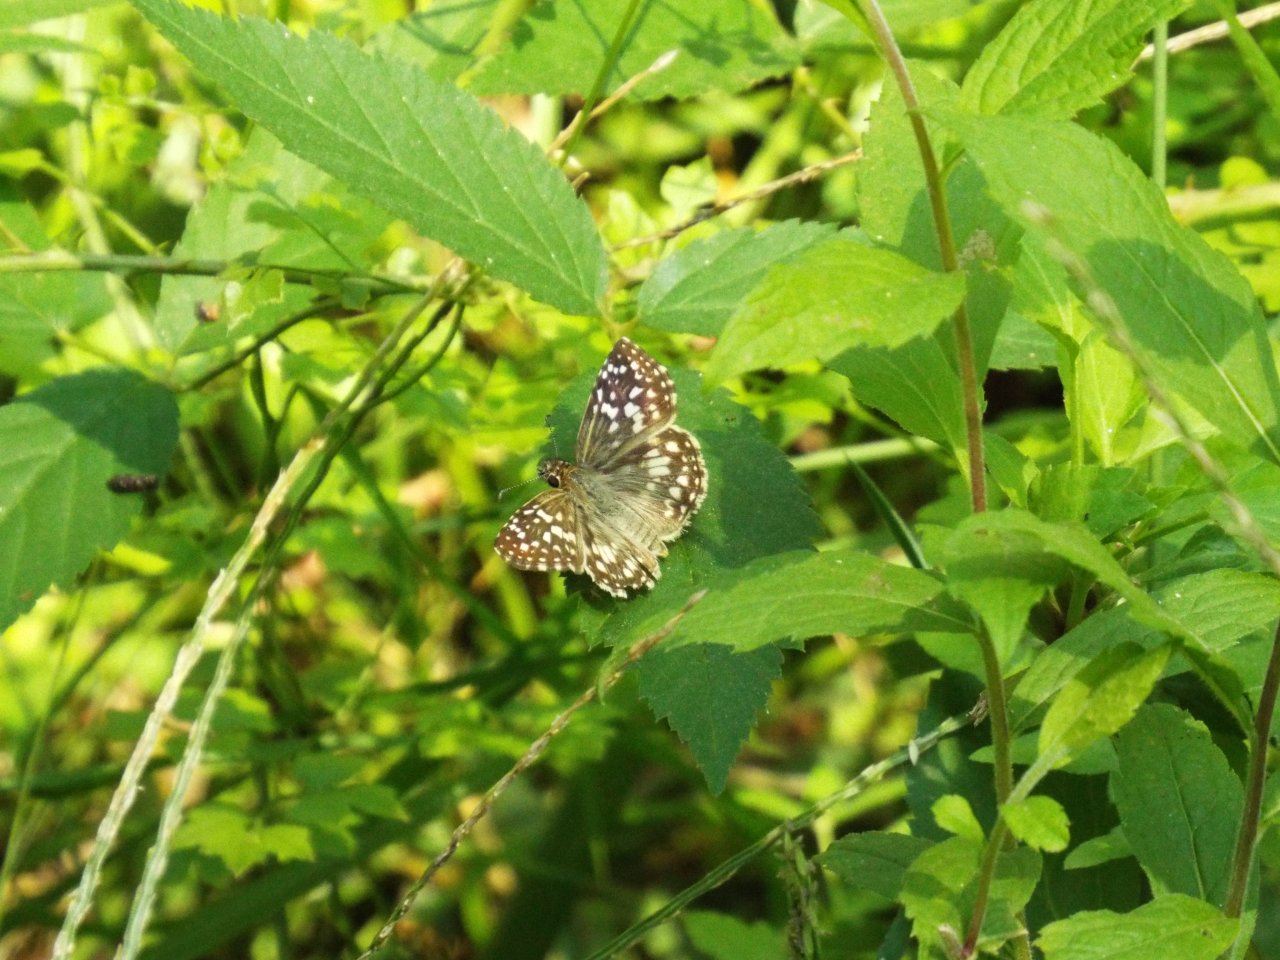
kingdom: Animalia
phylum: Arthropoda
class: Insecta
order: Lepidoptera
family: Hesperiidae
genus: Pyrgus
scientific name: Pyrgus oileus
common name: Tropical Checkered-Skipper
